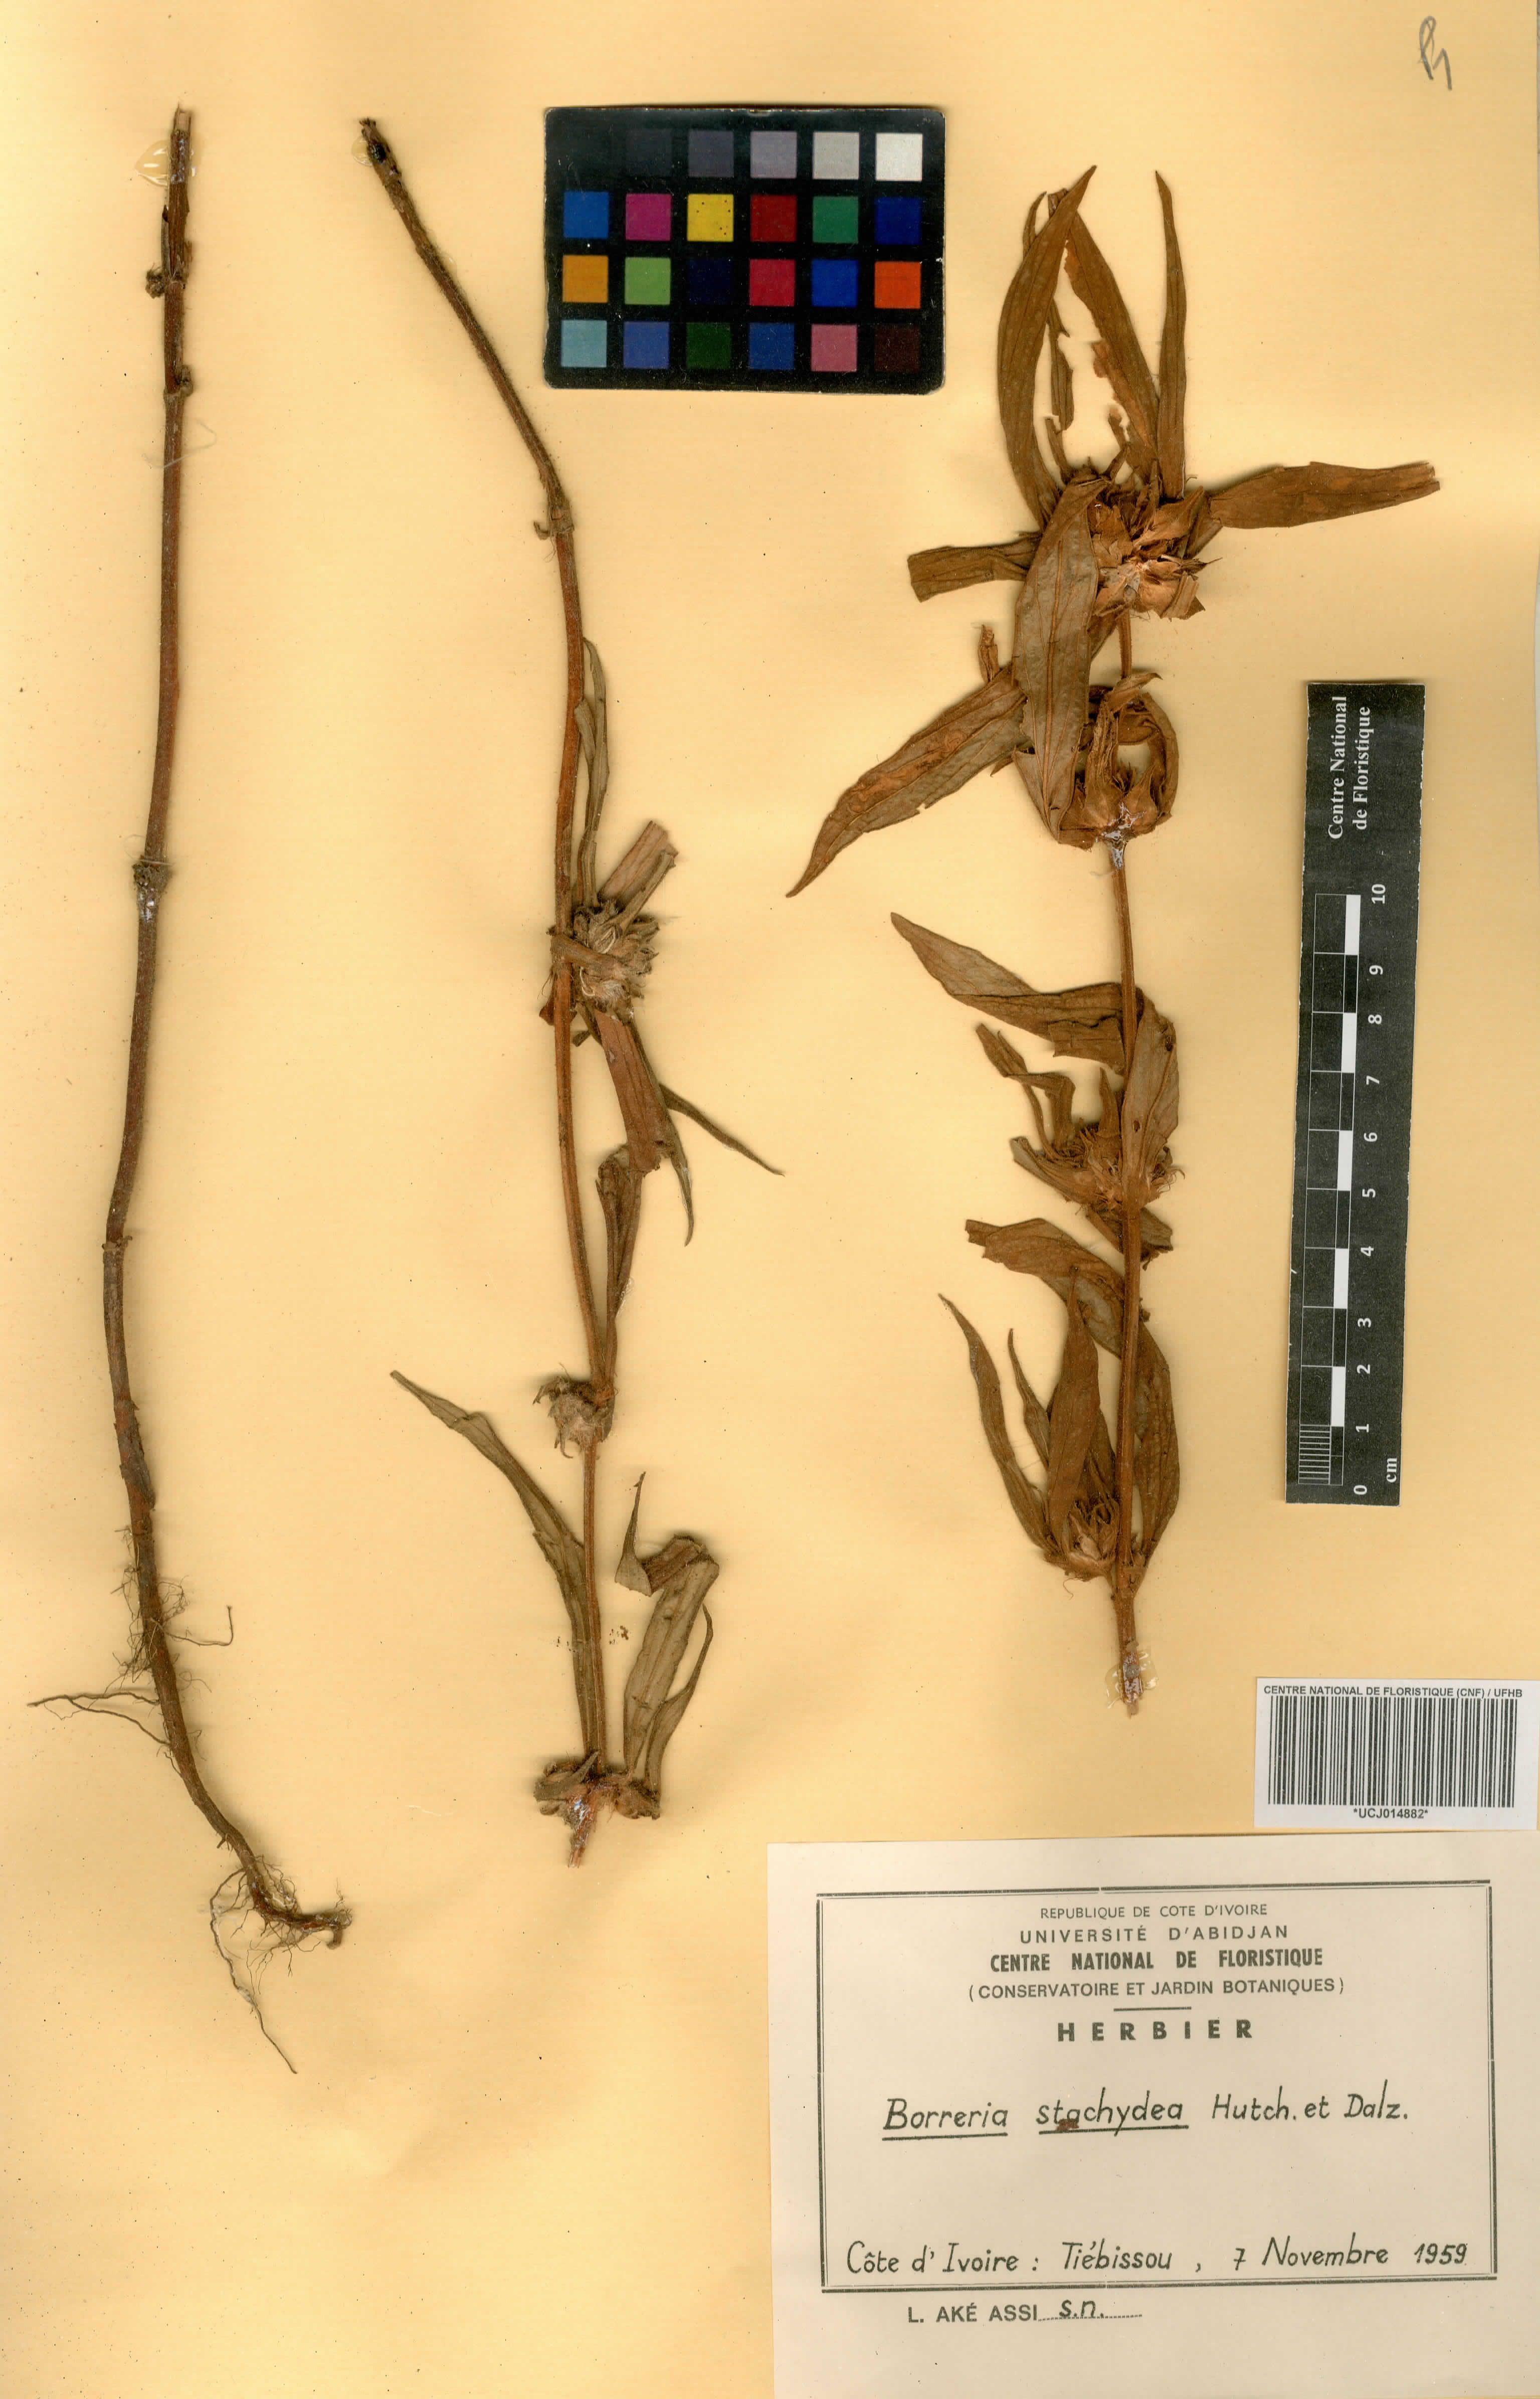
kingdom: Plantae
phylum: Tracheophyta
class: Magnoliopsida
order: Gentianales
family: Rubiaceae
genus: Spermacoce
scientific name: Spermacoce stachydea
